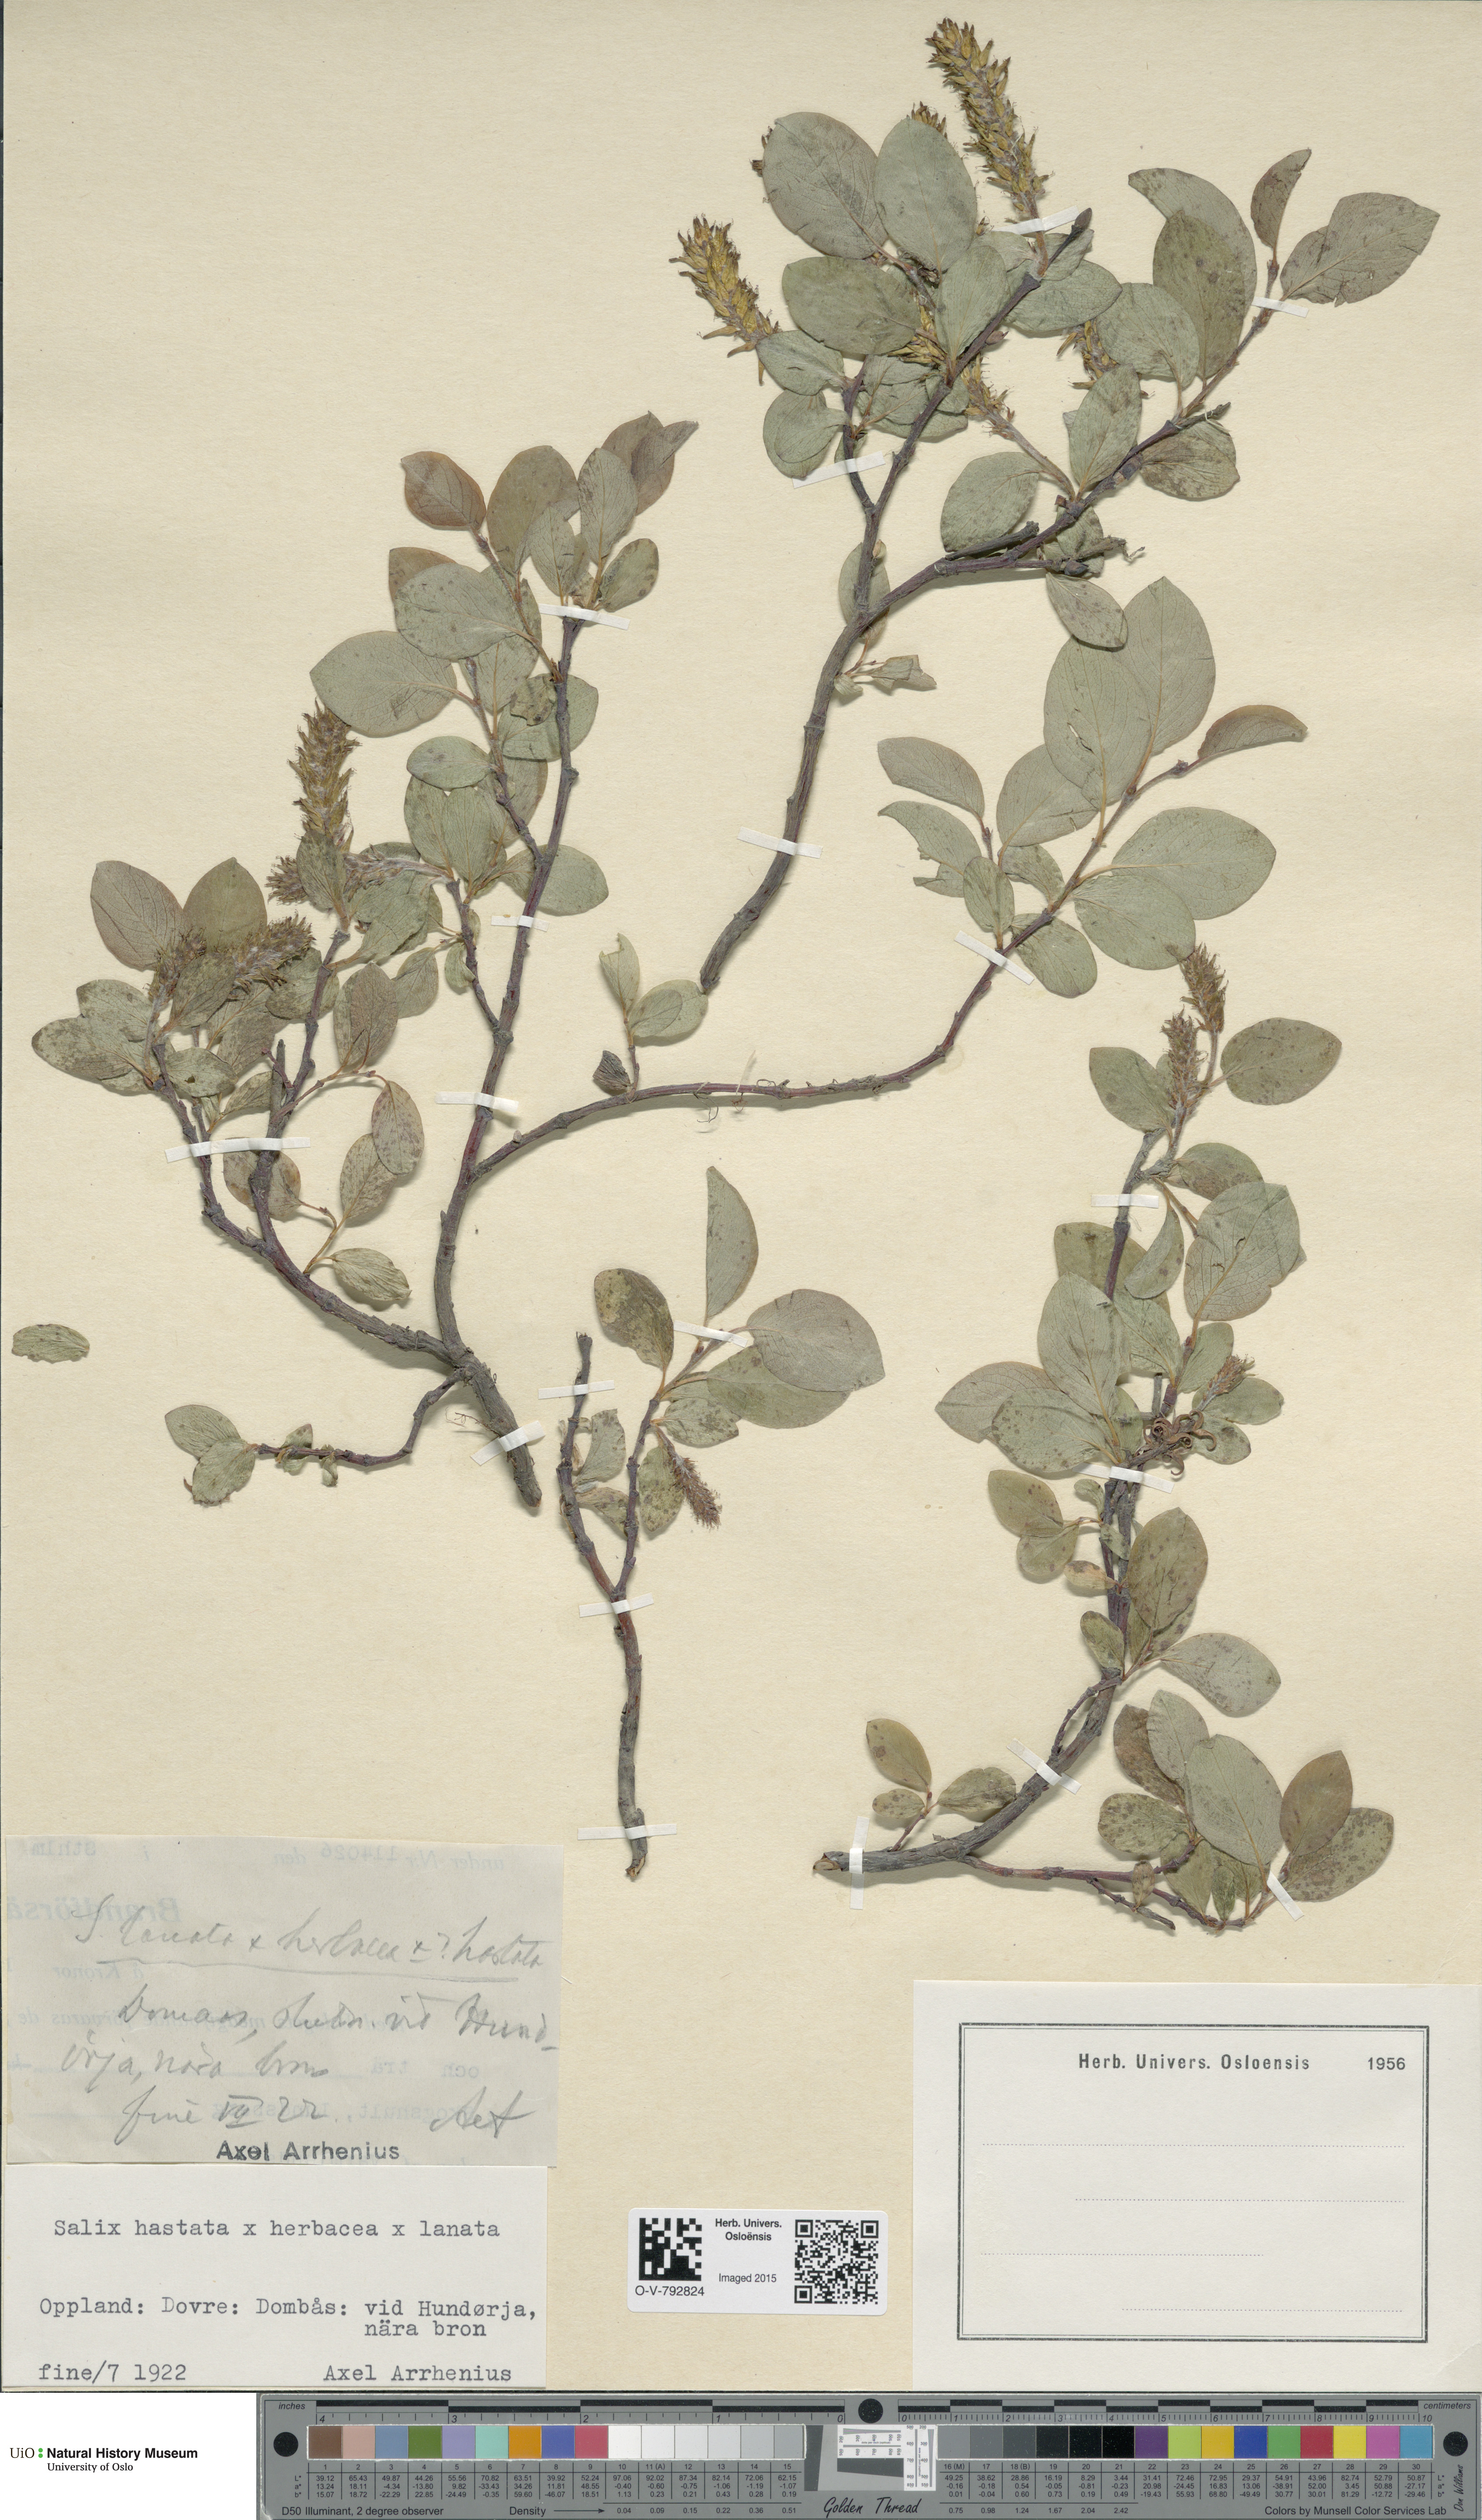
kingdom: Plantae
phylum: Tracheophyta
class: Magnoliopsida
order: Malpighiales
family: Salicaceae
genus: Salix
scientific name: Salix
